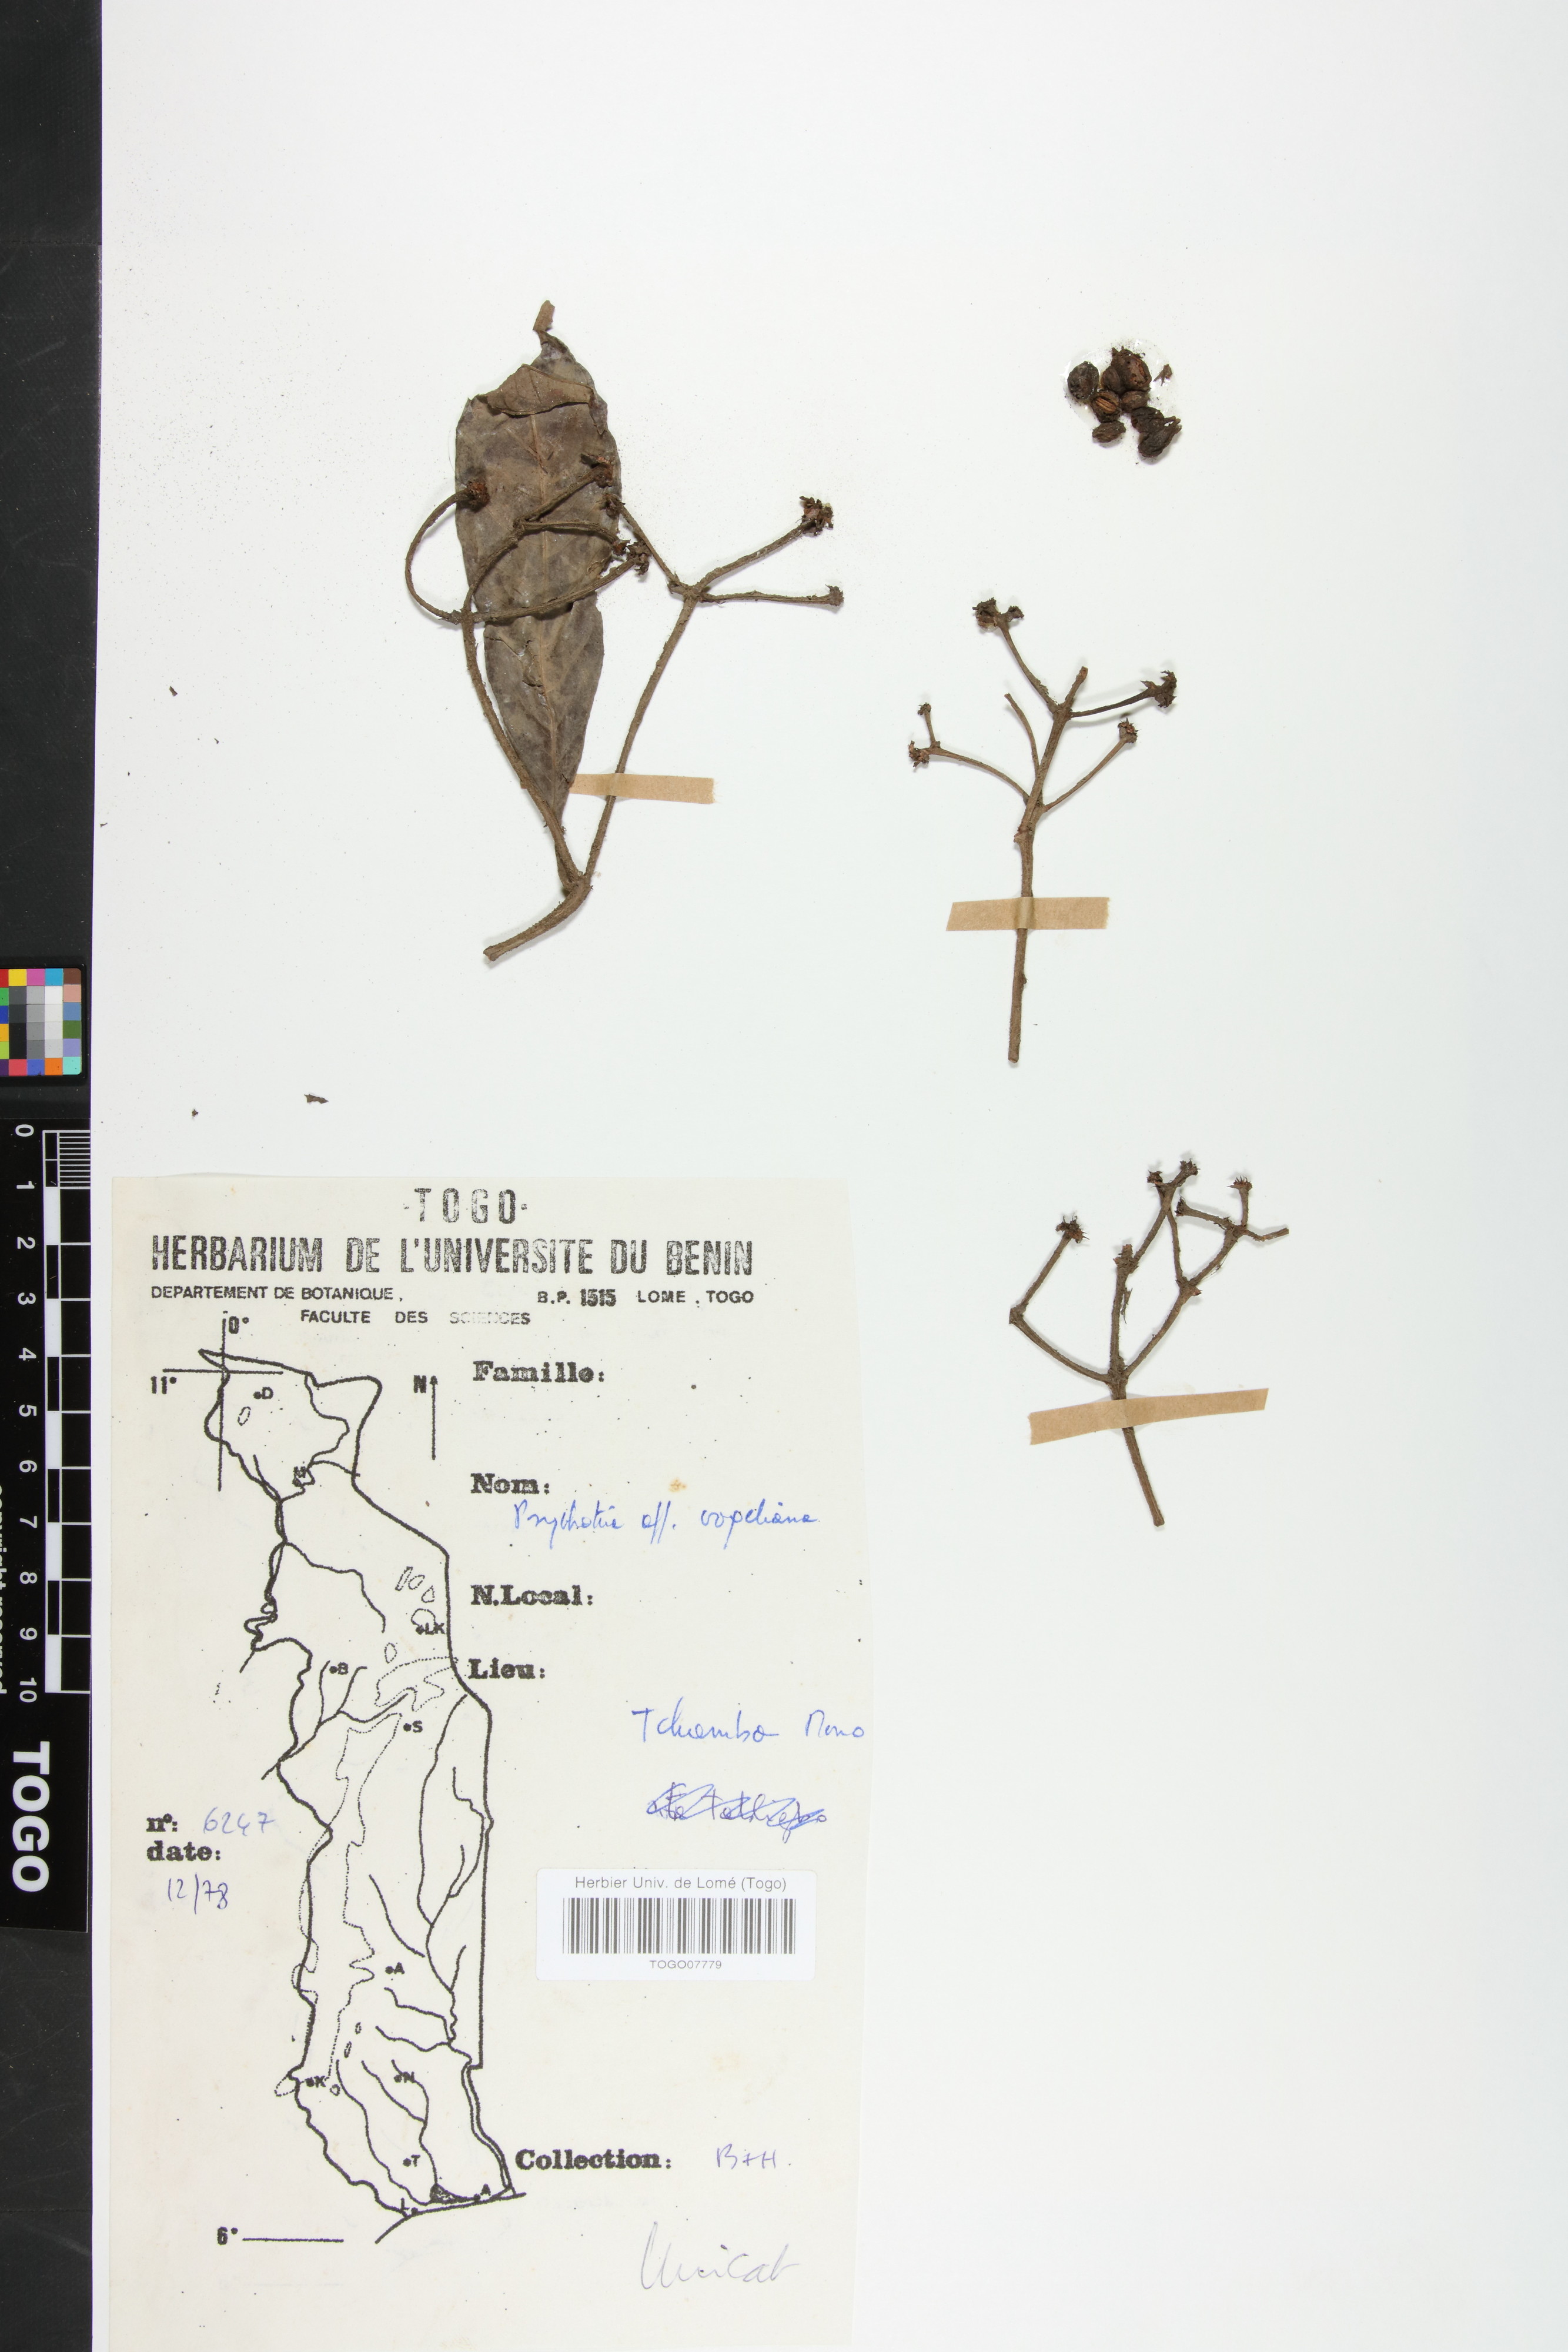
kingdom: Plantae
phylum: Tracheophyta
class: Magnoliopsida
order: Gentianales
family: Rubiaceae
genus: Psychotria
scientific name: Psychotria vogeliana
